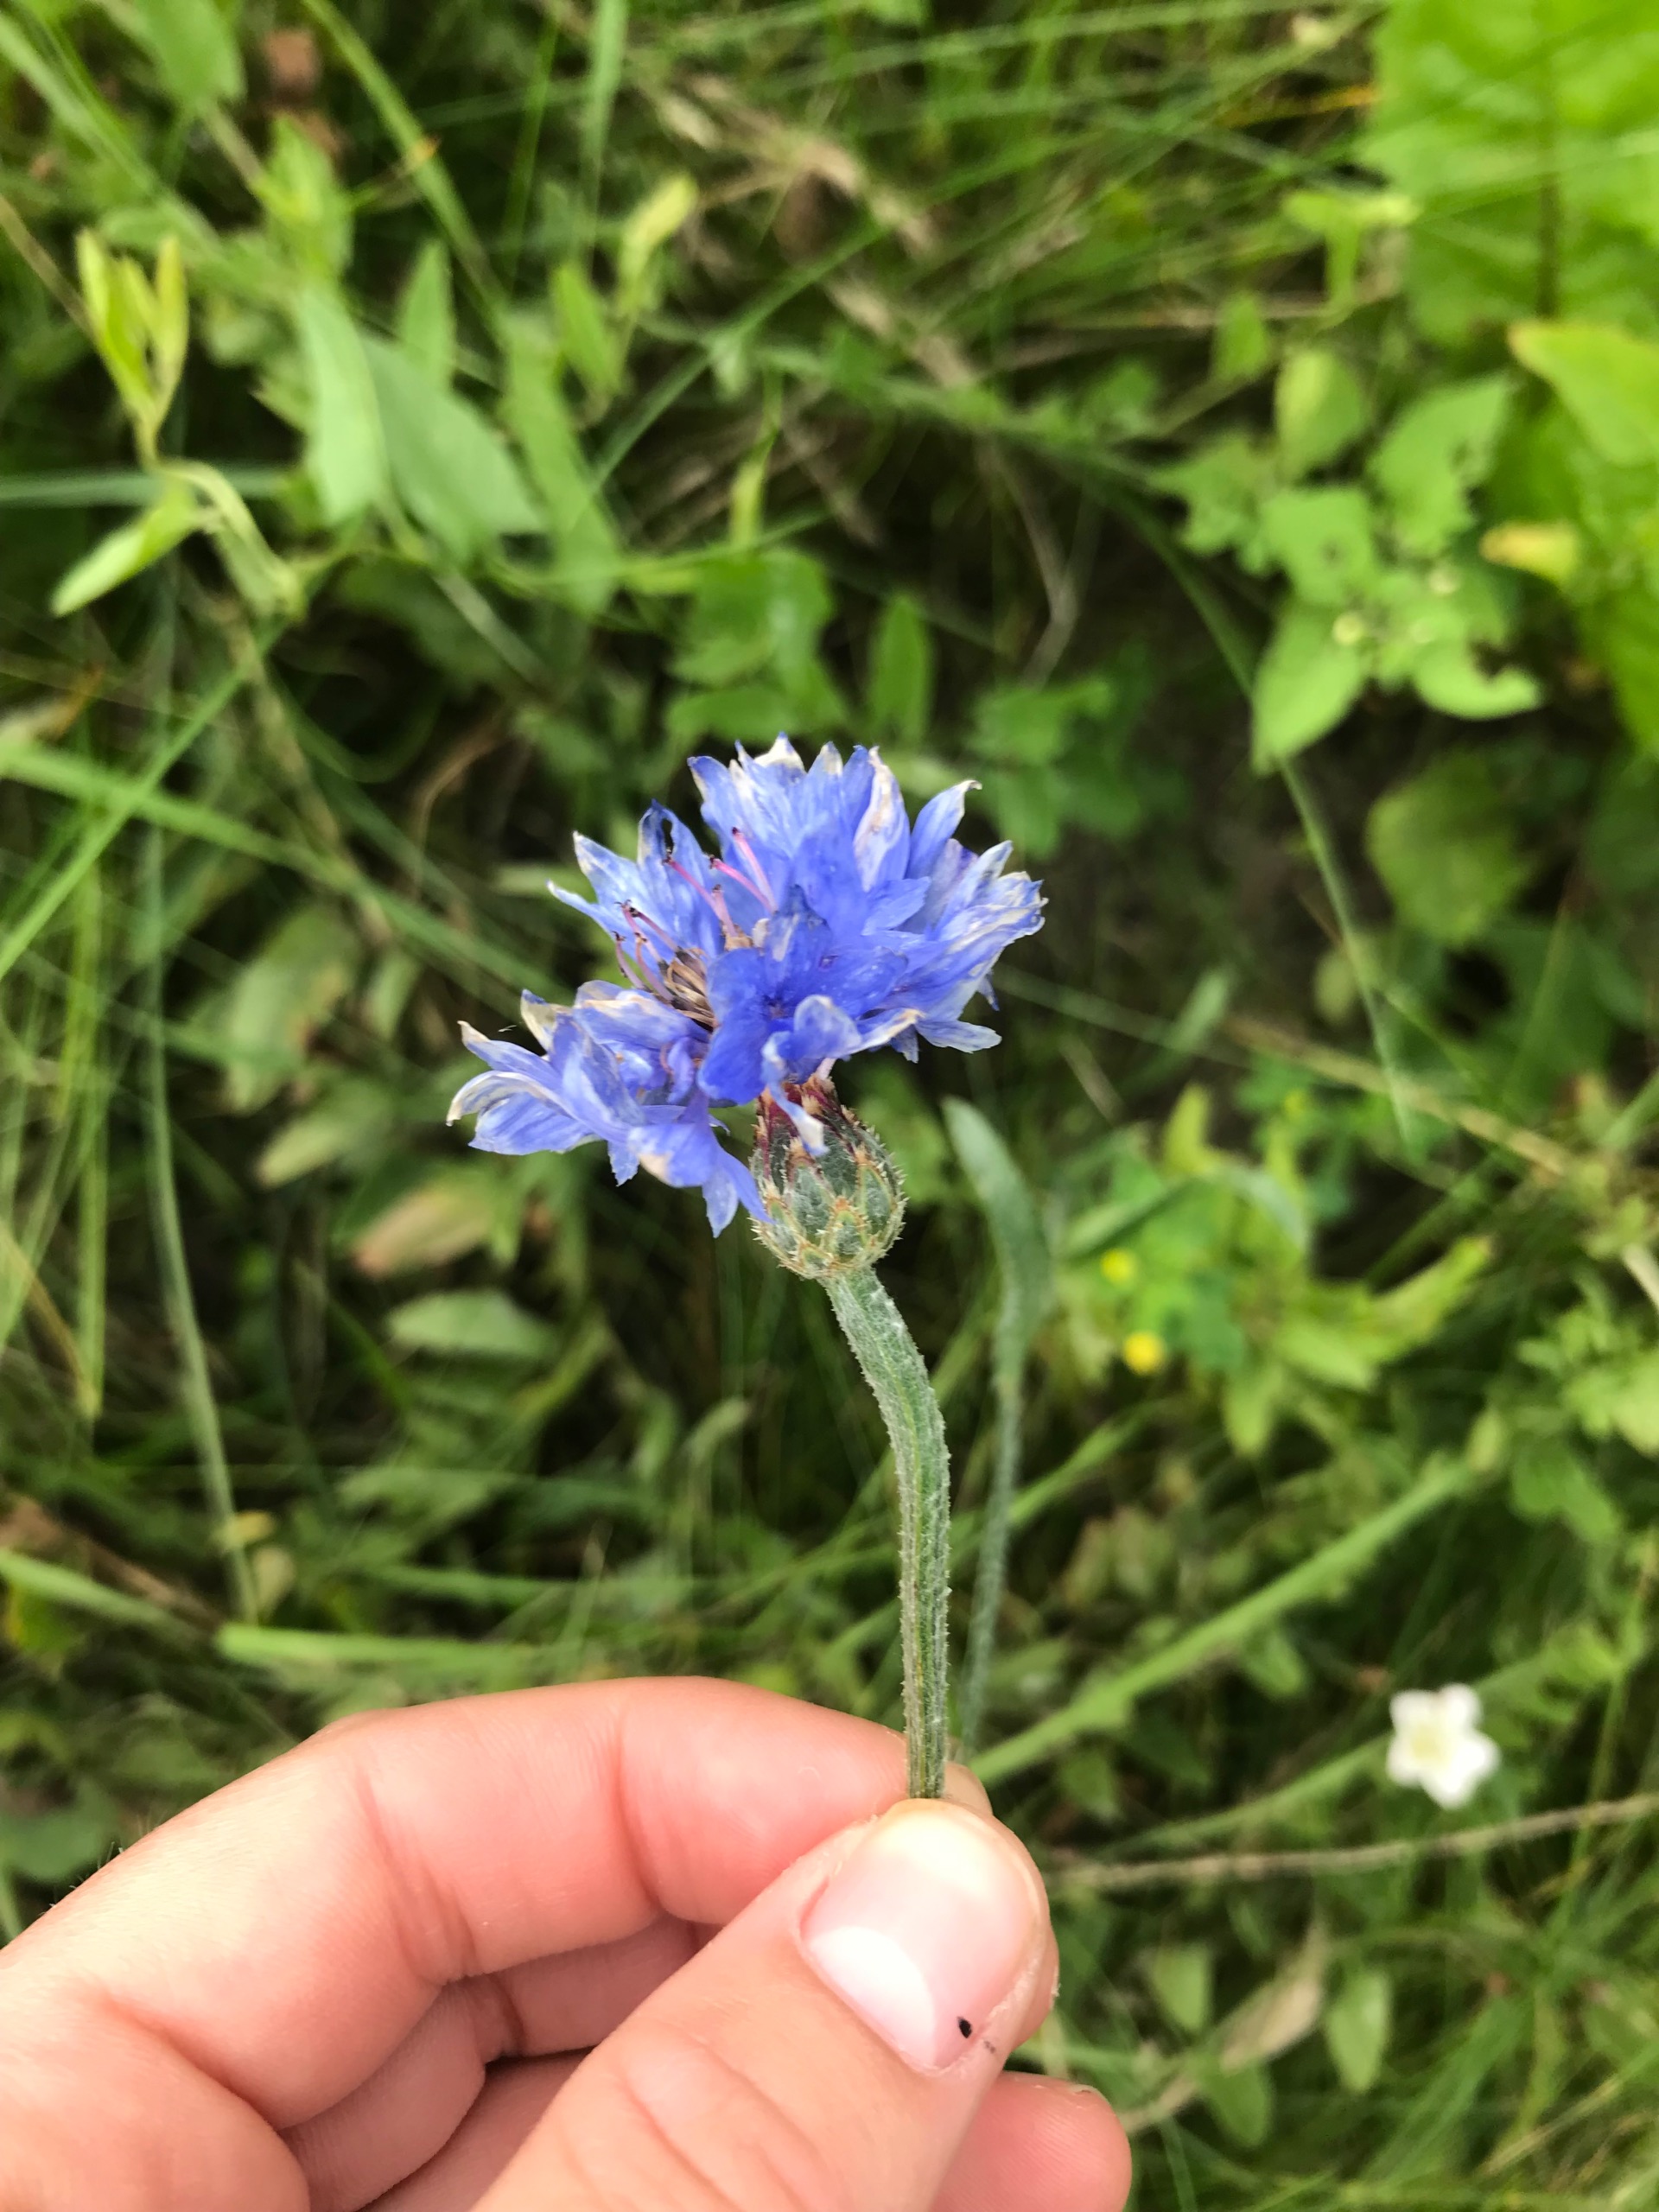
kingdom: Plantae
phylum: Tracheophyta
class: Magnoliopsida
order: Asterales
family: Asteraceae
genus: Centaurea
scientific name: Centaurea cyanus
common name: Kornblomst
